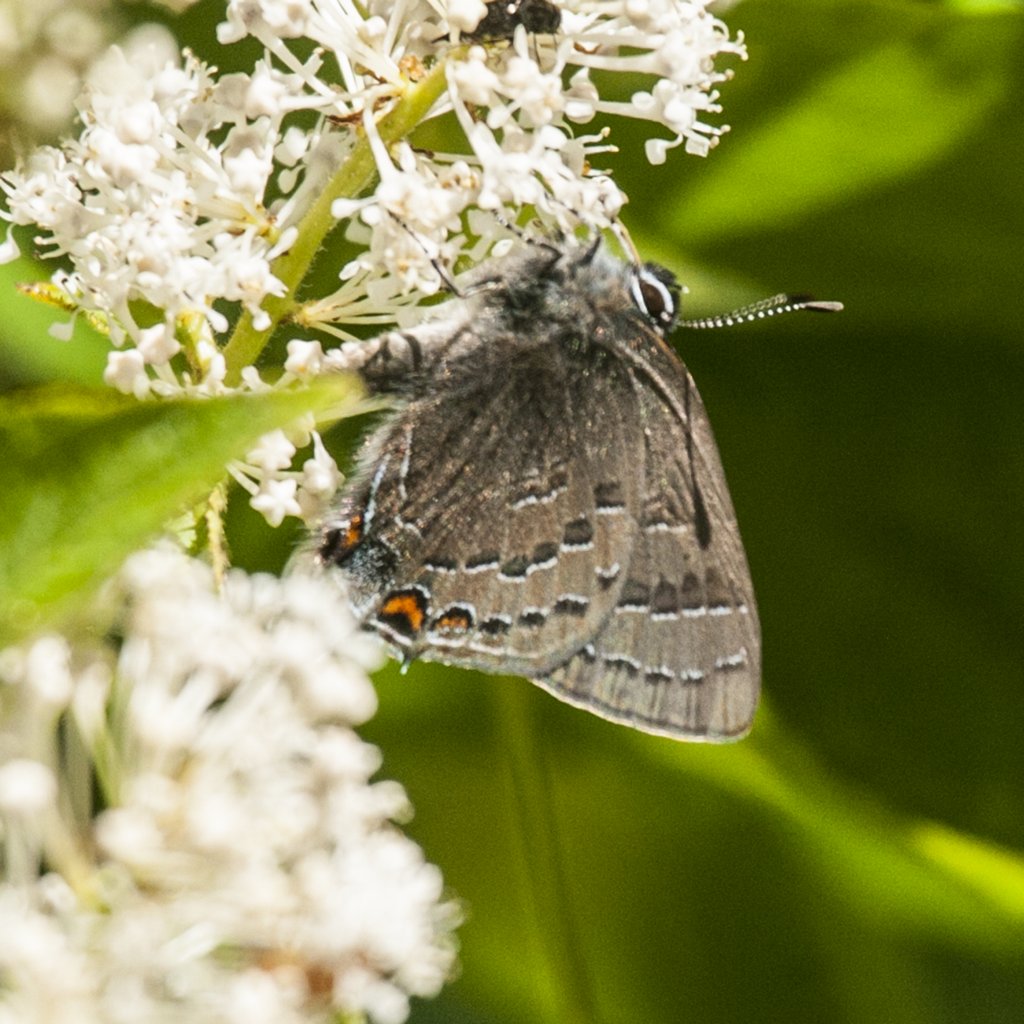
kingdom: Animalia
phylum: Arthropoda
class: Insecta
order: Lepidoptera
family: Lycaenidae
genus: Satyrium
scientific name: Satyrium calanus
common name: Banded Hairstreak
